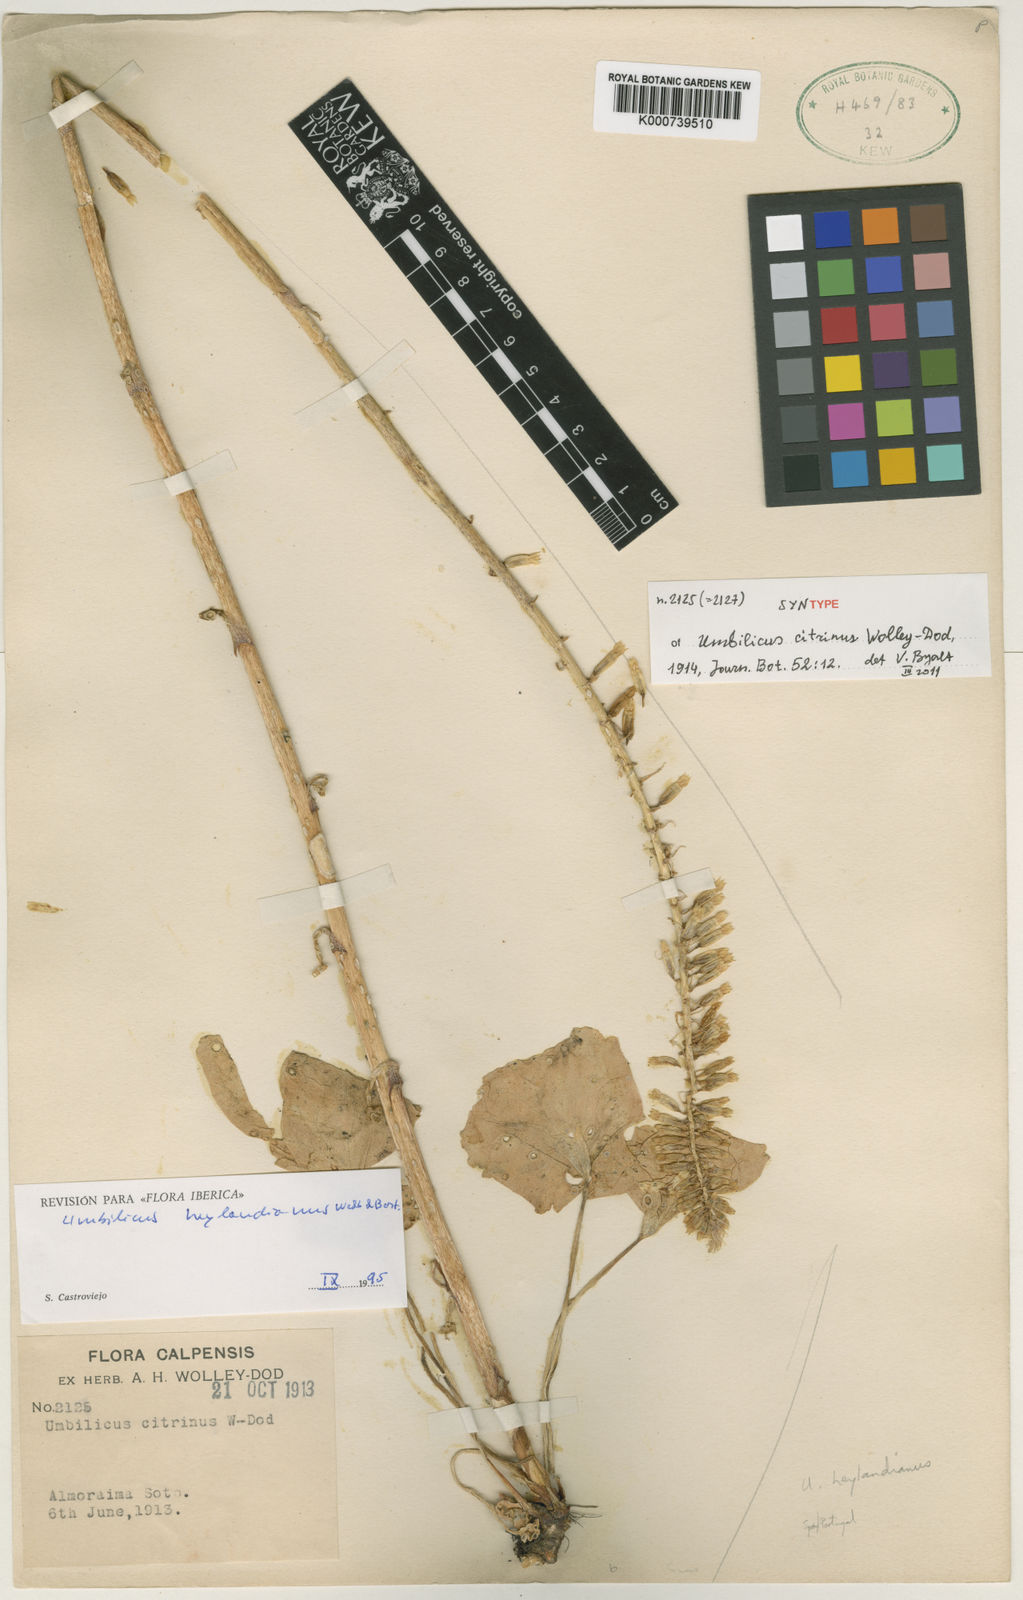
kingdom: Plantae
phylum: Tracheophyta
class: Magnoliopsida
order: Saxifragales
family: Crassulaceae
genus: Umbilicus
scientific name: Umbilicus heylandianus
